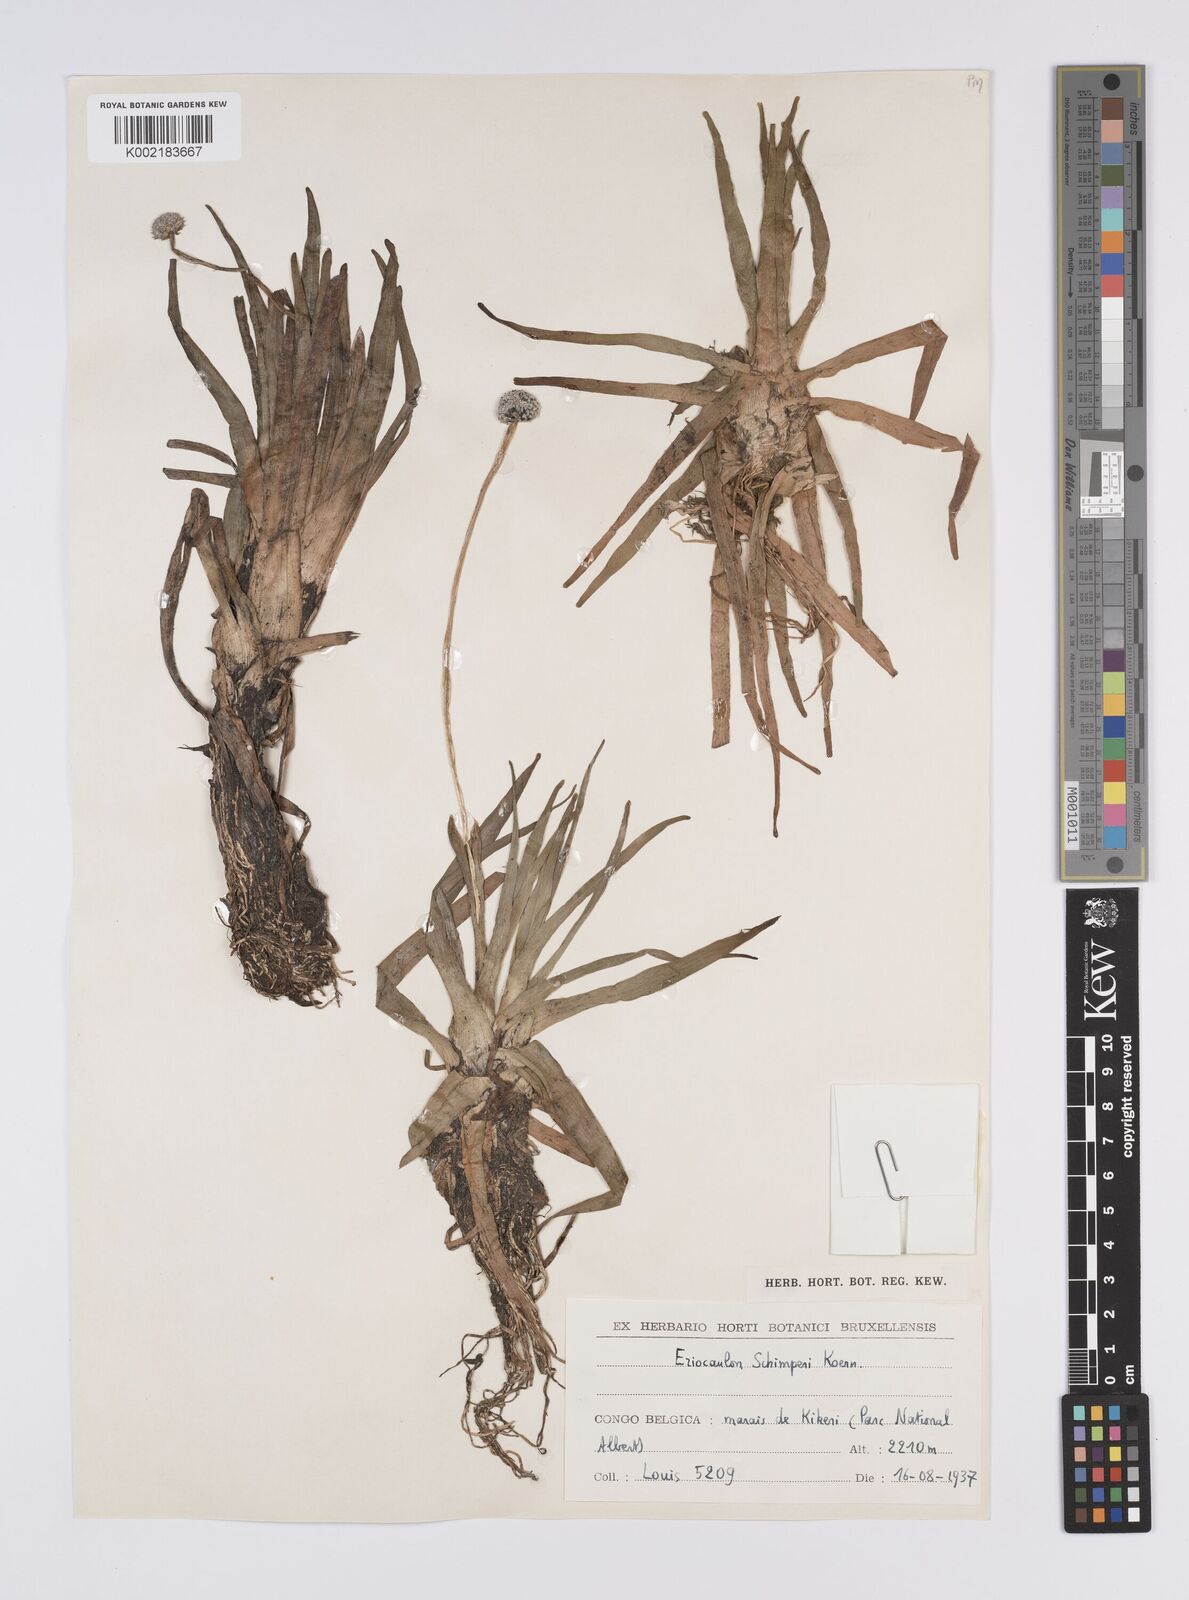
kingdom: Plantae
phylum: Tracheophyta
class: Liliopsida
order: Poales
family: Eriocaulaceae
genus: Eriocaulon
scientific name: Eriocaulon schimperi
